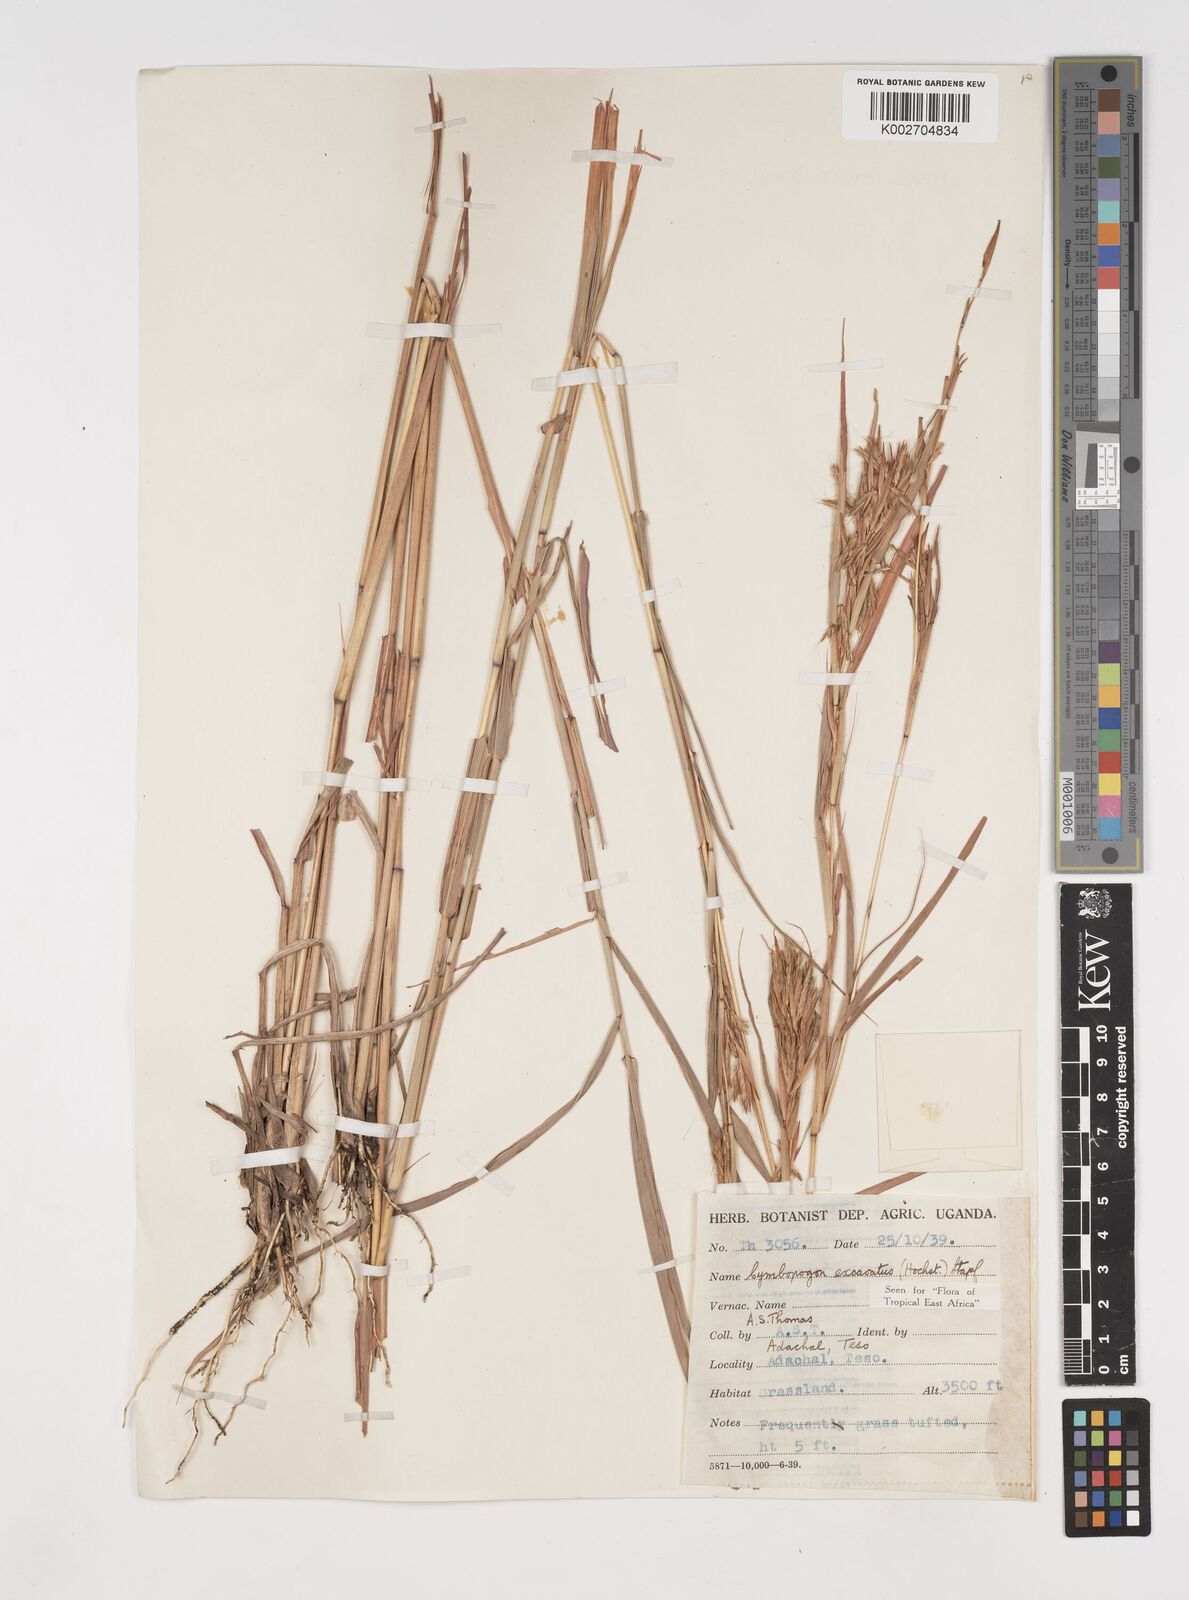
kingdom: Plantae
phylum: Tracheophyta
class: Liliopsida
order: Poales
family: Poaceae
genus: Cymbopogon
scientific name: Cymbopogon caesius
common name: Kachi grass
